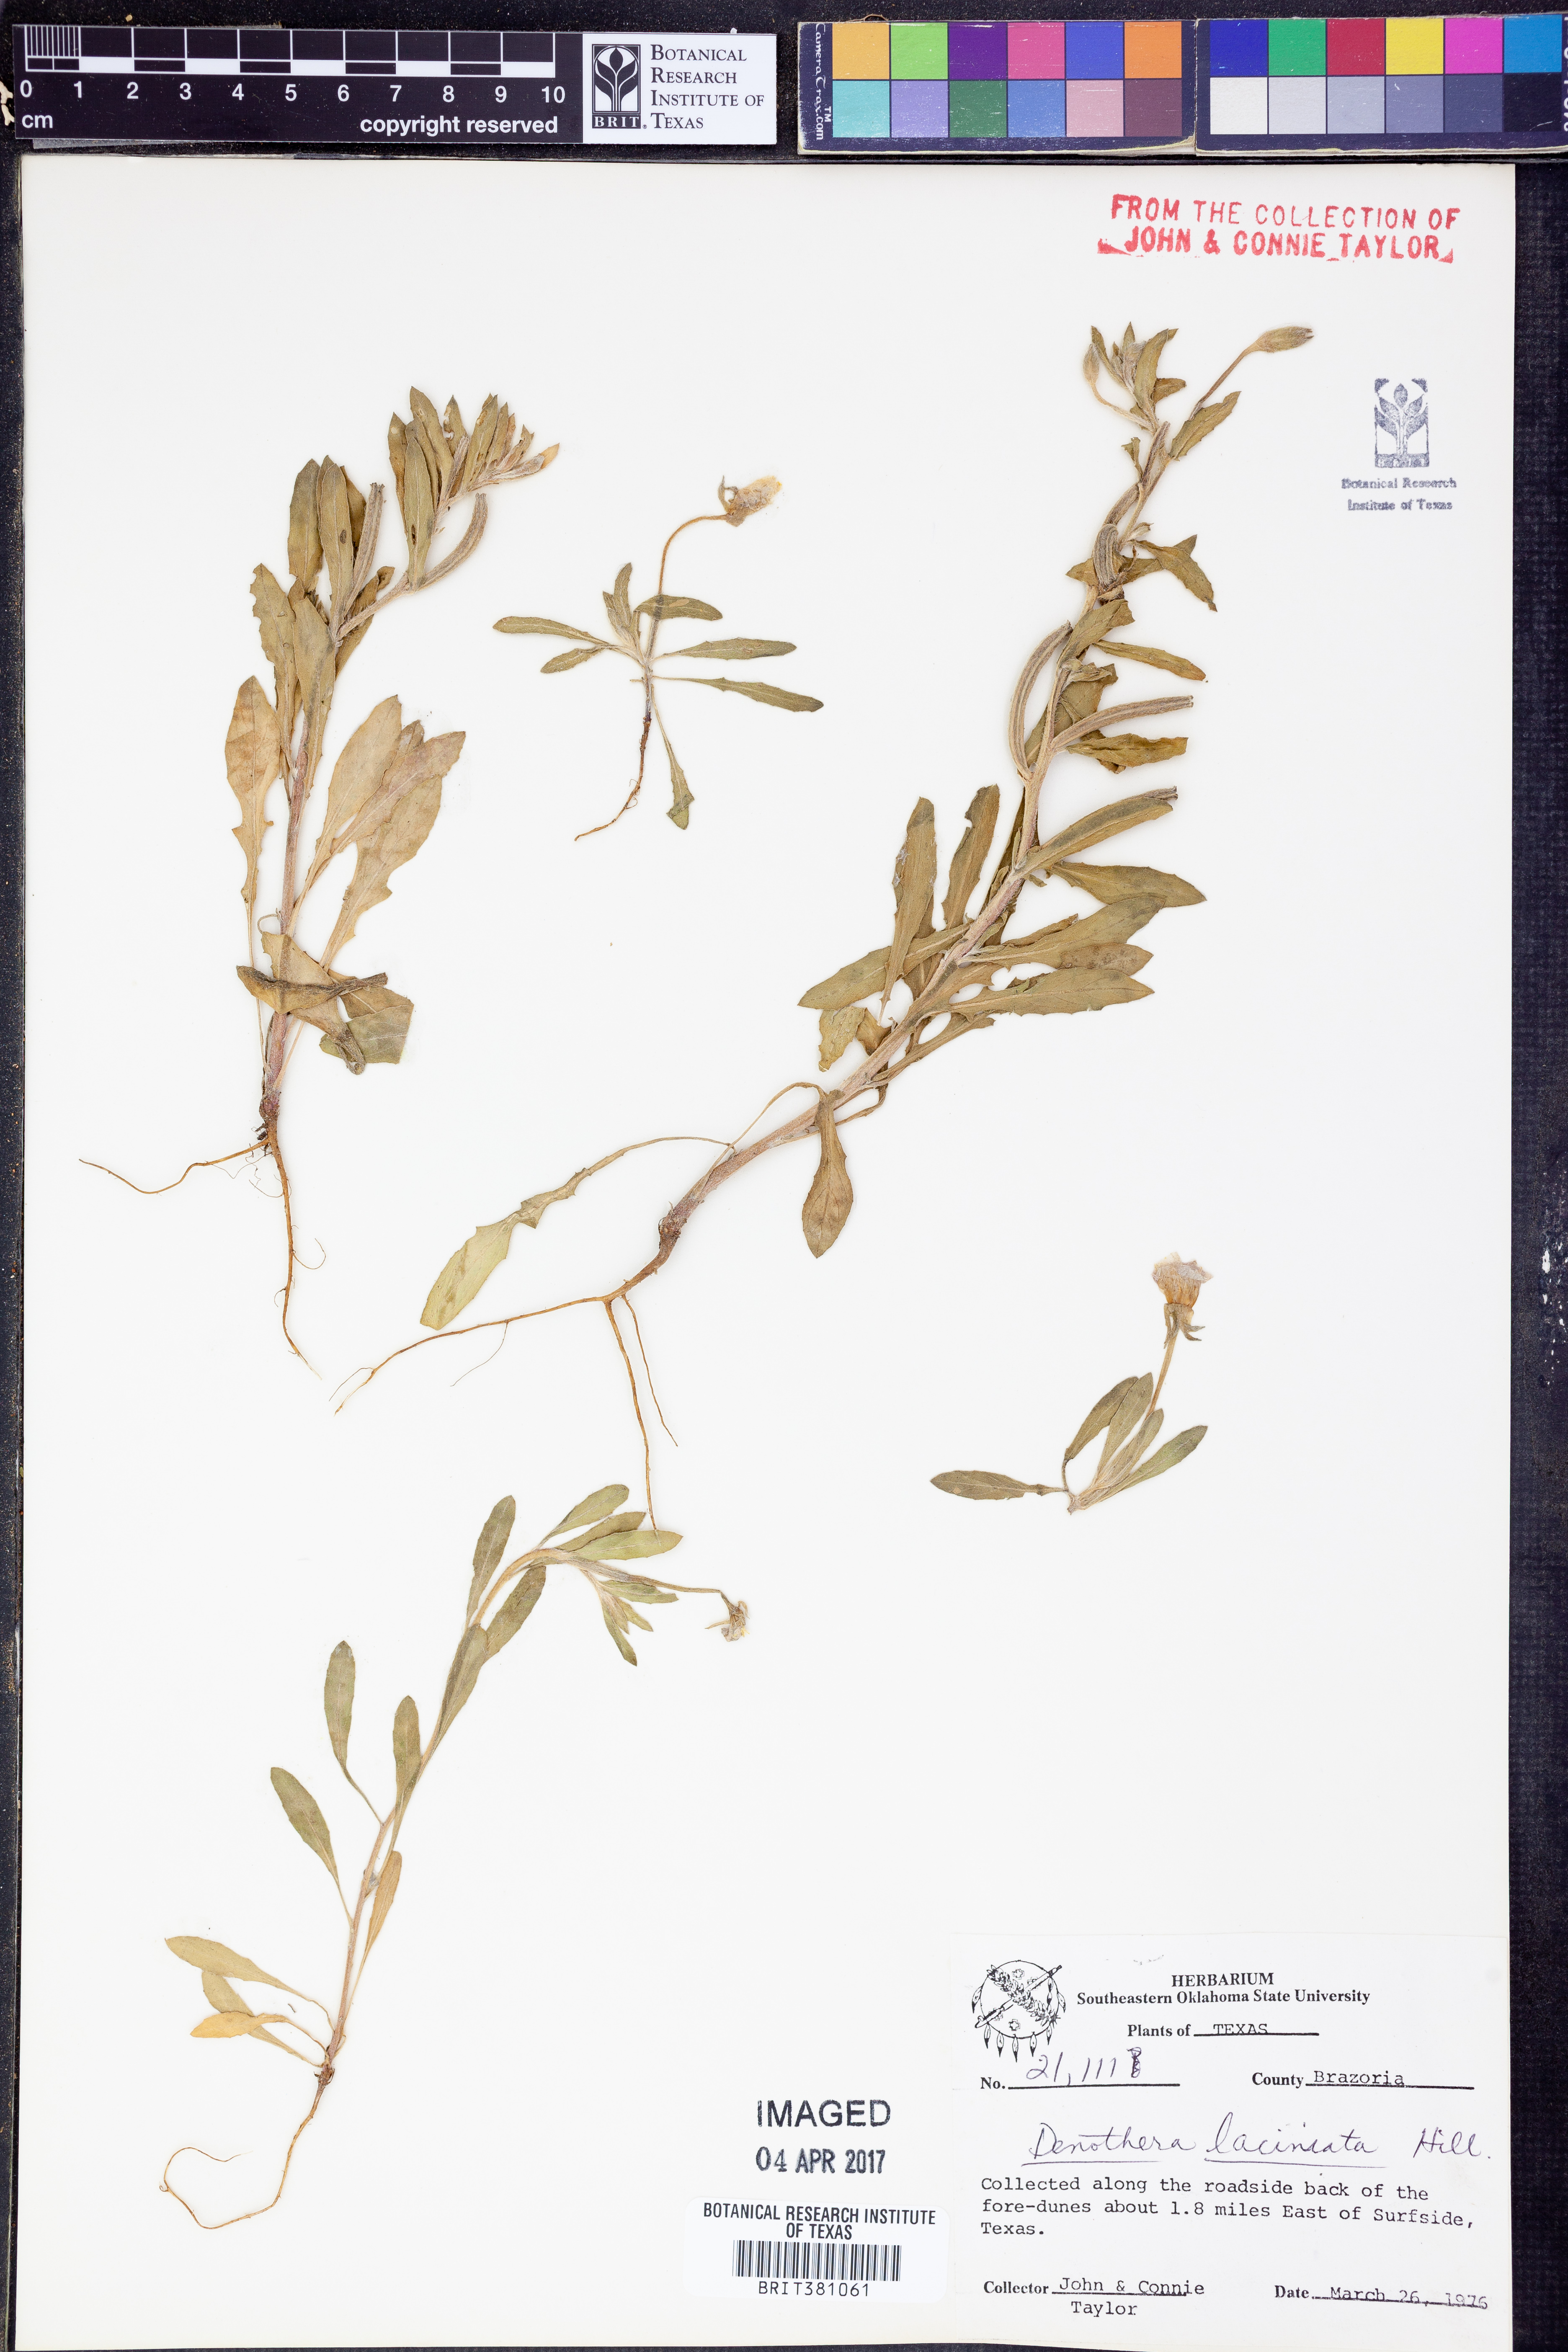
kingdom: Plantae
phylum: Tracheophyta
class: Magnoliopsida
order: Myrtales
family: Onagraceae
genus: Oenothera
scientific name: Oenothera laciniata
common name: Cut-leaved evening-primrose
